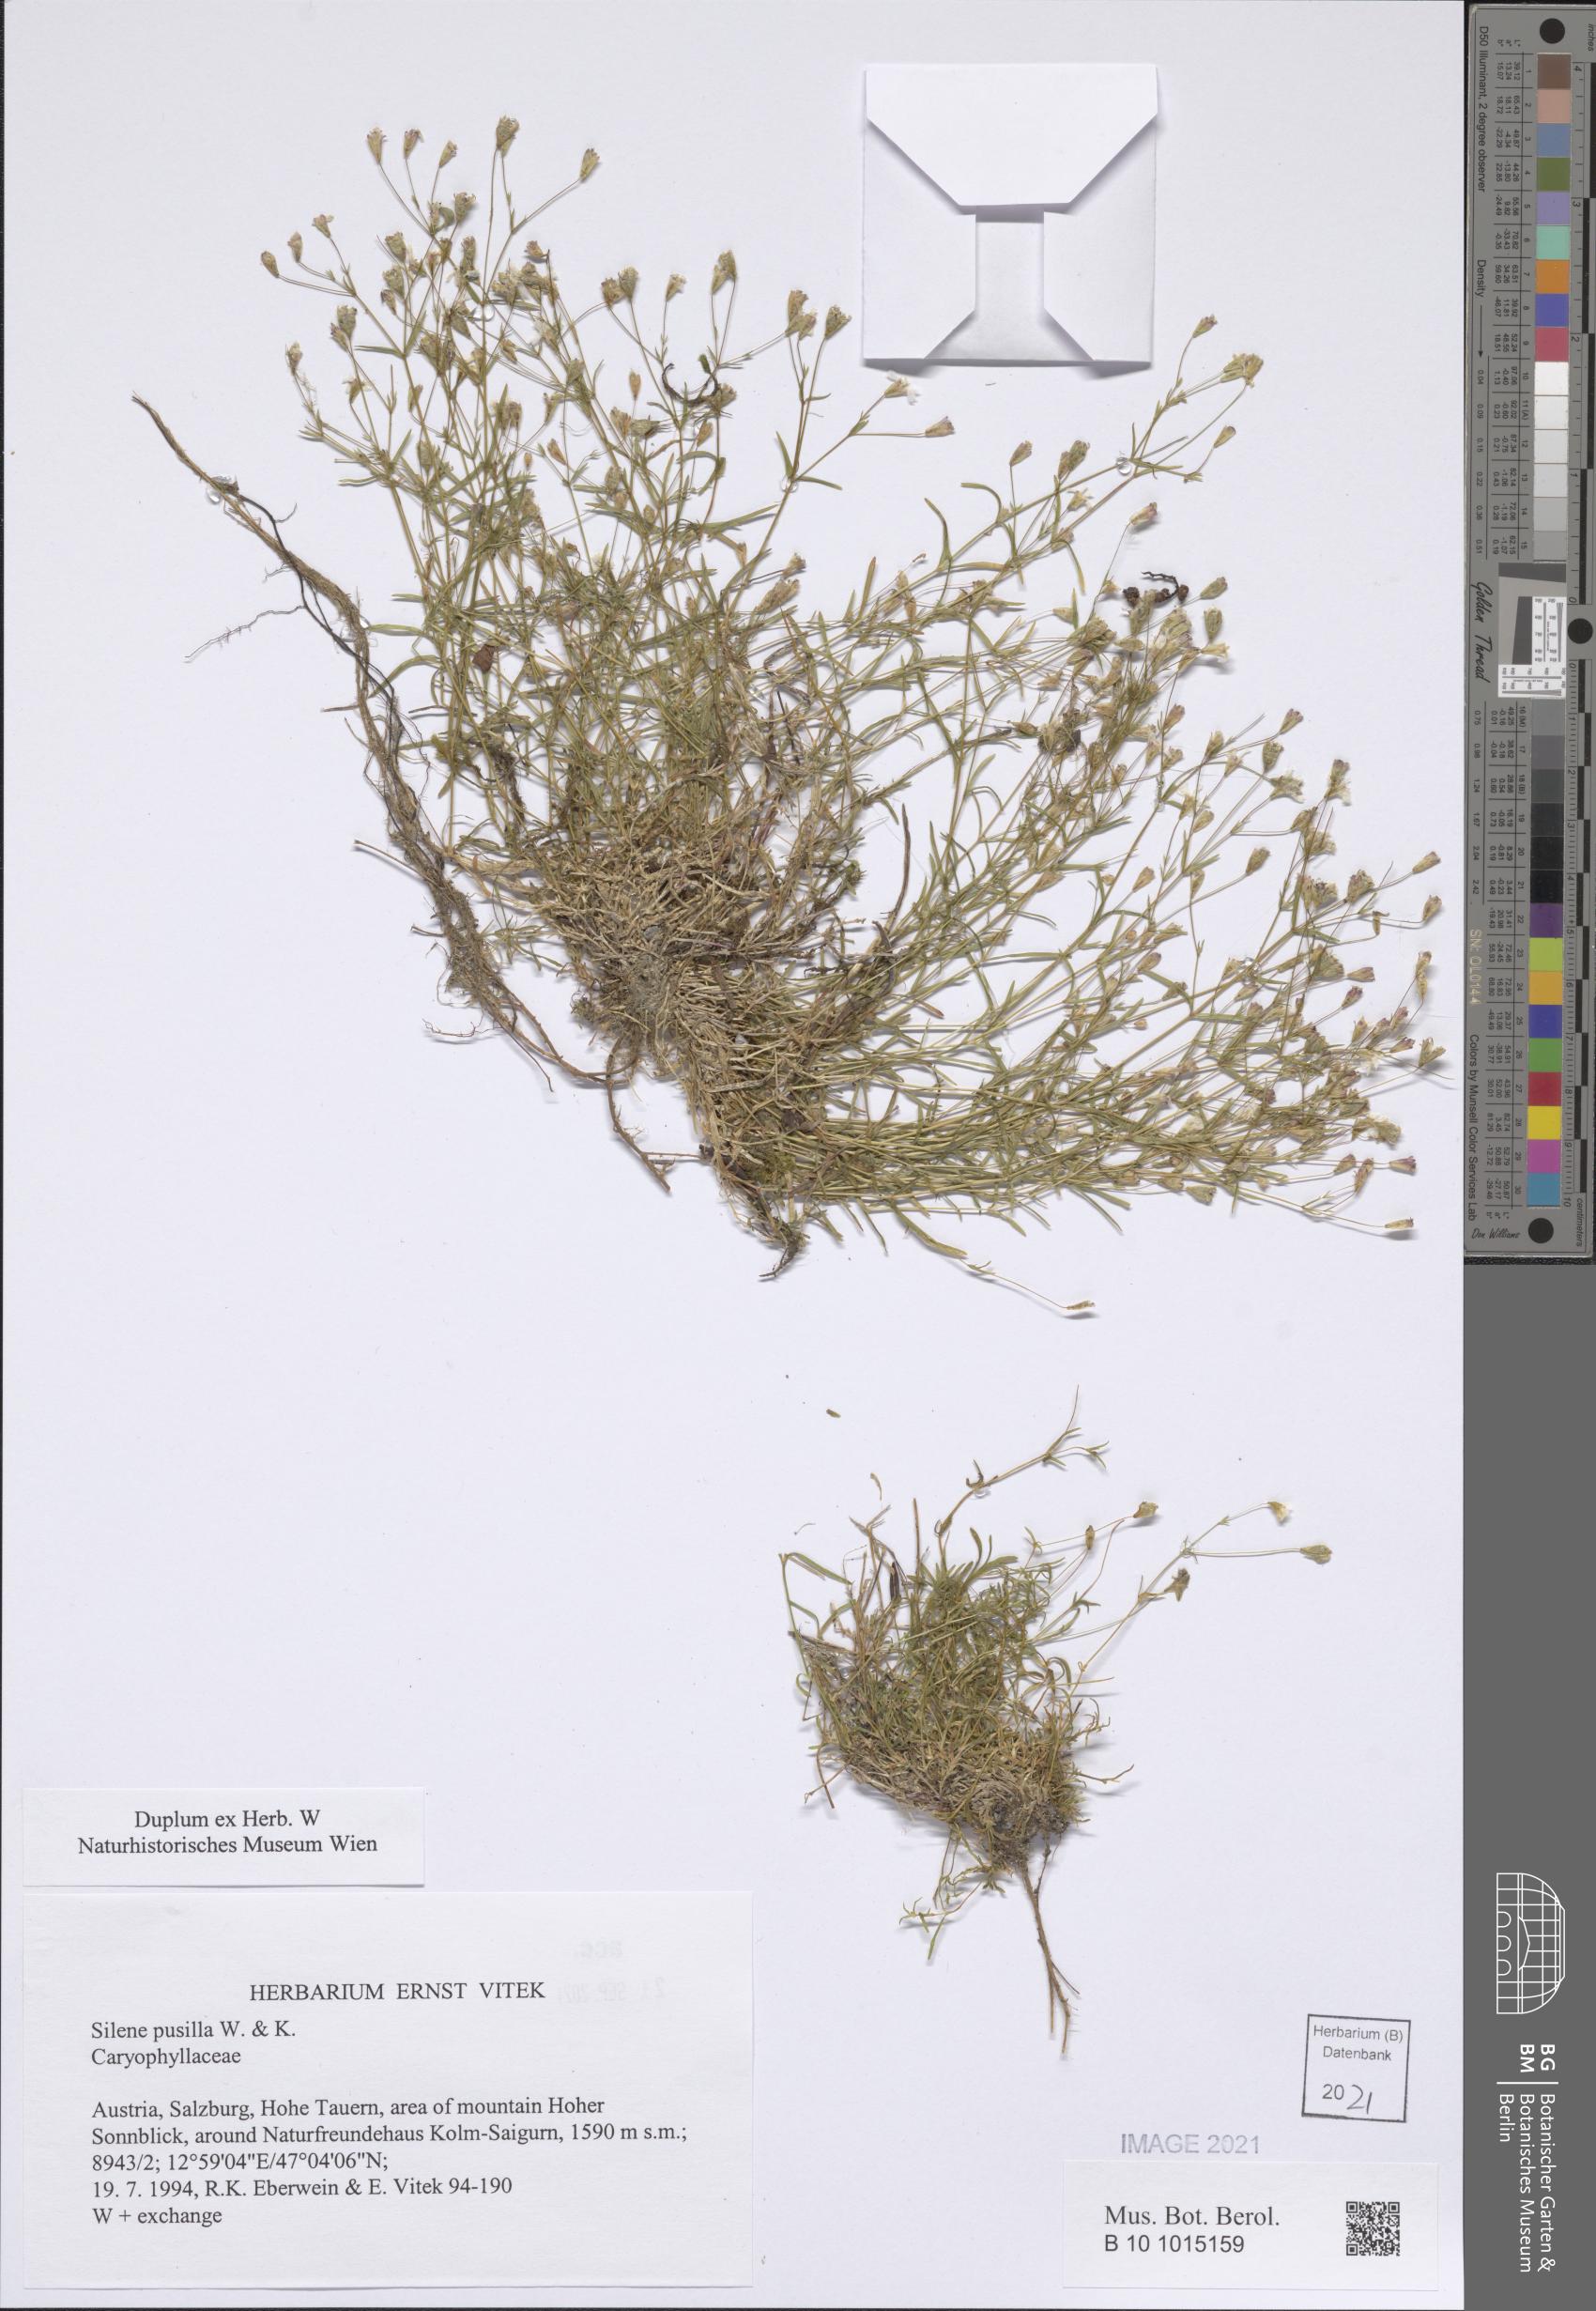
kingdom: Plantae
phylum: Tracheophyta
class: Magnoliopsida
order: Caryophyllales
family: Caryophyllaceae
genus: Heliosperma
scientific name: Heliosperma pusillum
